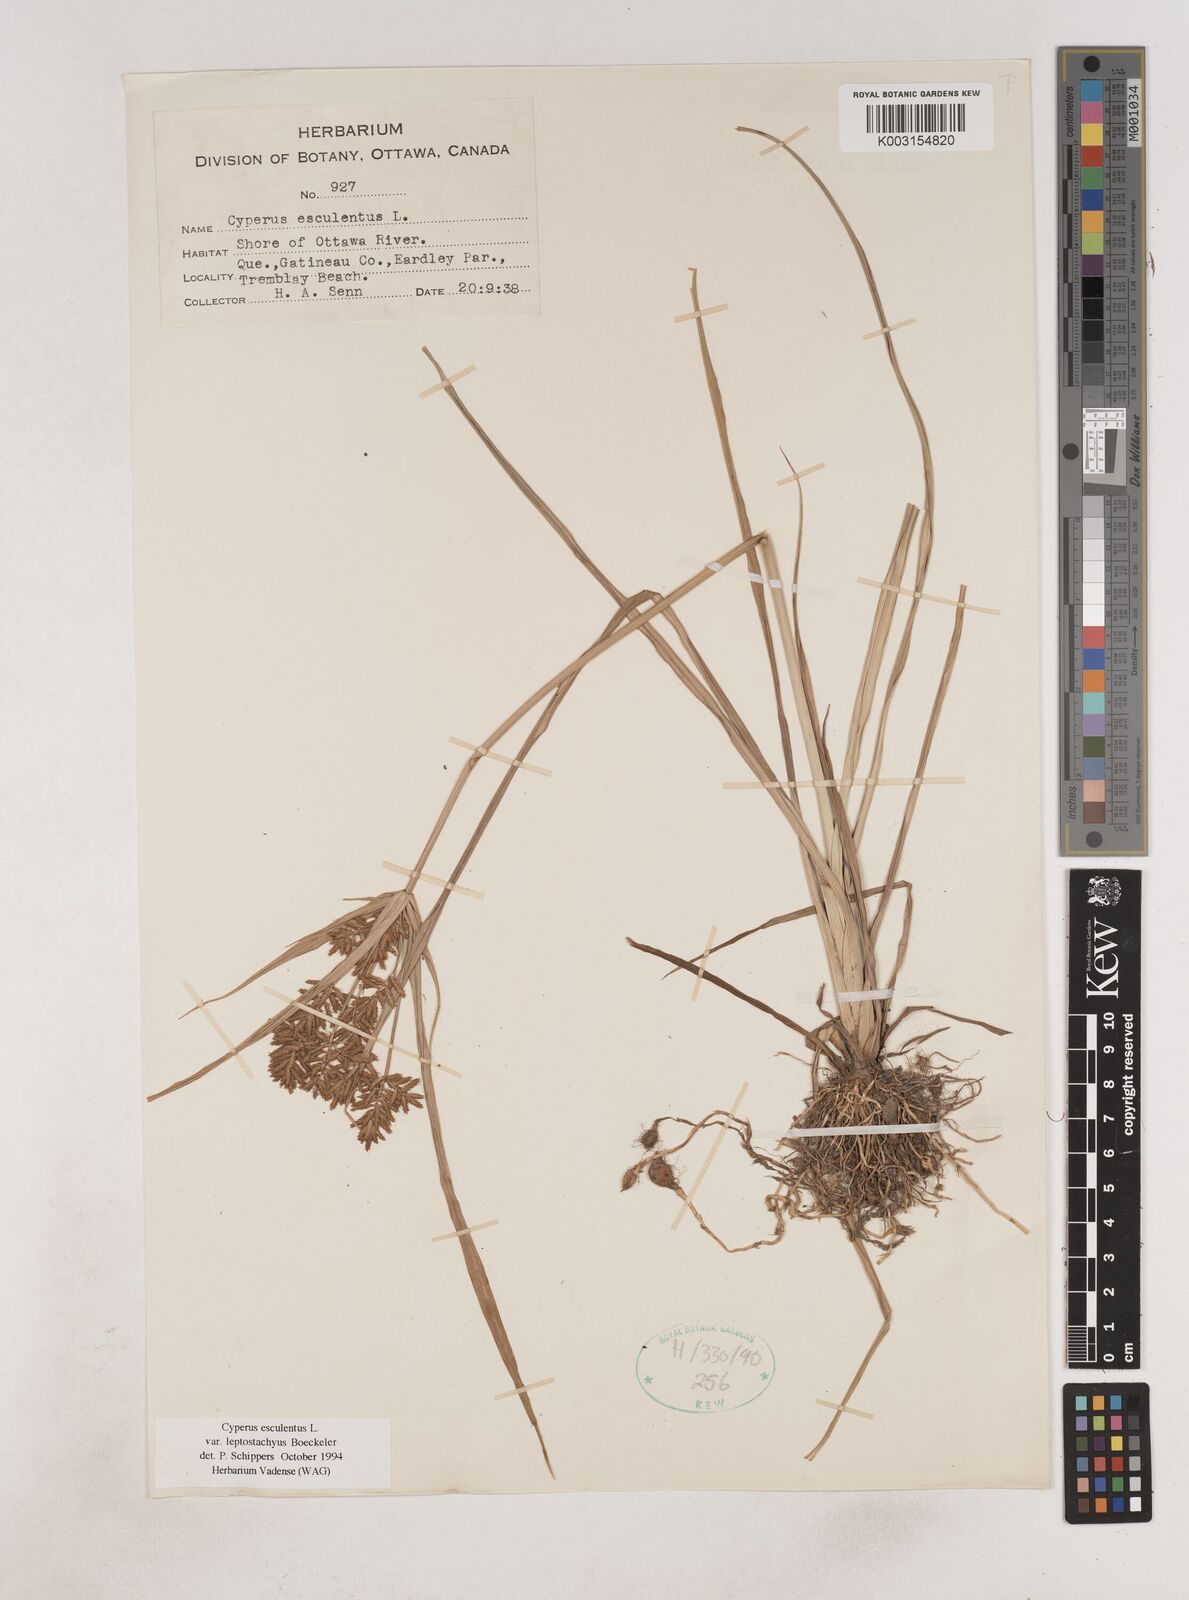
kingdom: Plantae
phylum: Tracheophyta
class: Liliopsida
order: Poales
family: Cyperaceae
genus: Cyperus
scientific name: Cyperus esculentus
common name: Yellow nutsedge
